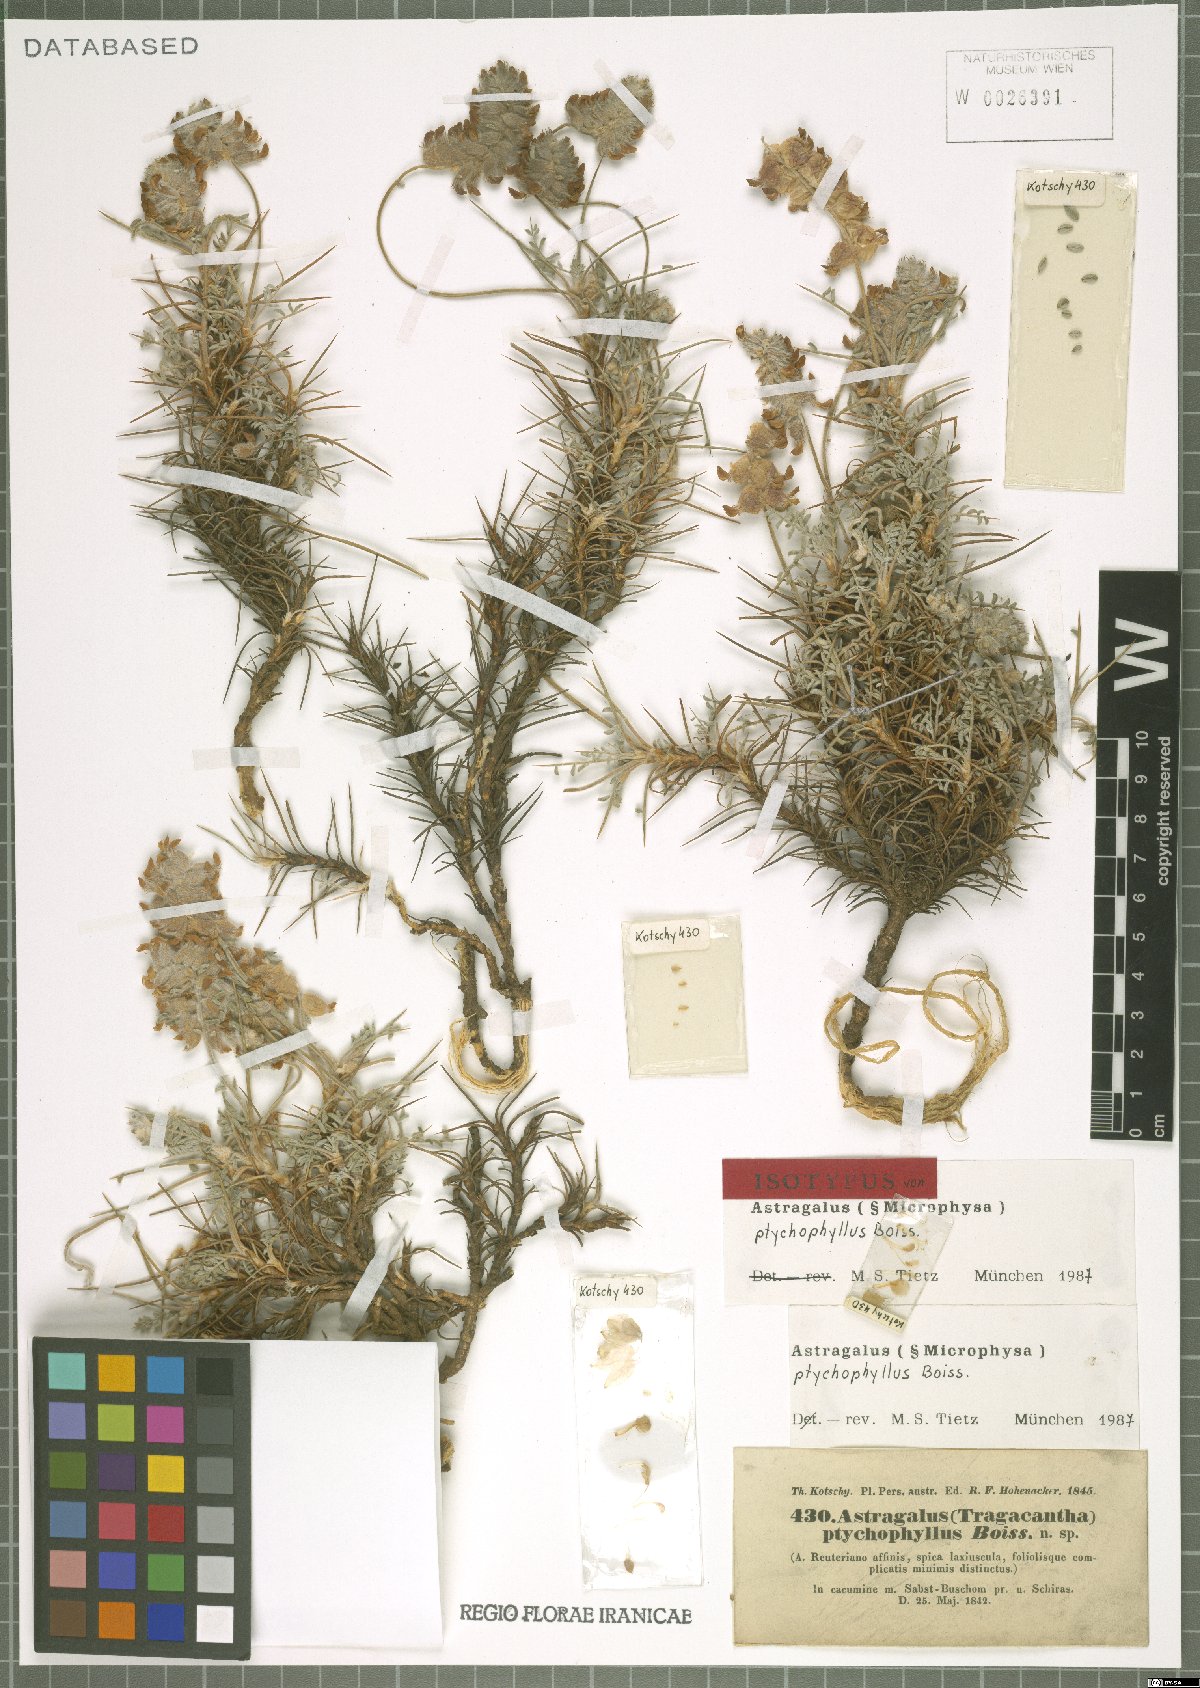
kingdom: Plantae
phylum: Tracheophyta
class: Magnoliopsida
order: Fabales
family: Fabaceae
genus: Astragalus
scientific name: Astragalus ptychophyllus
